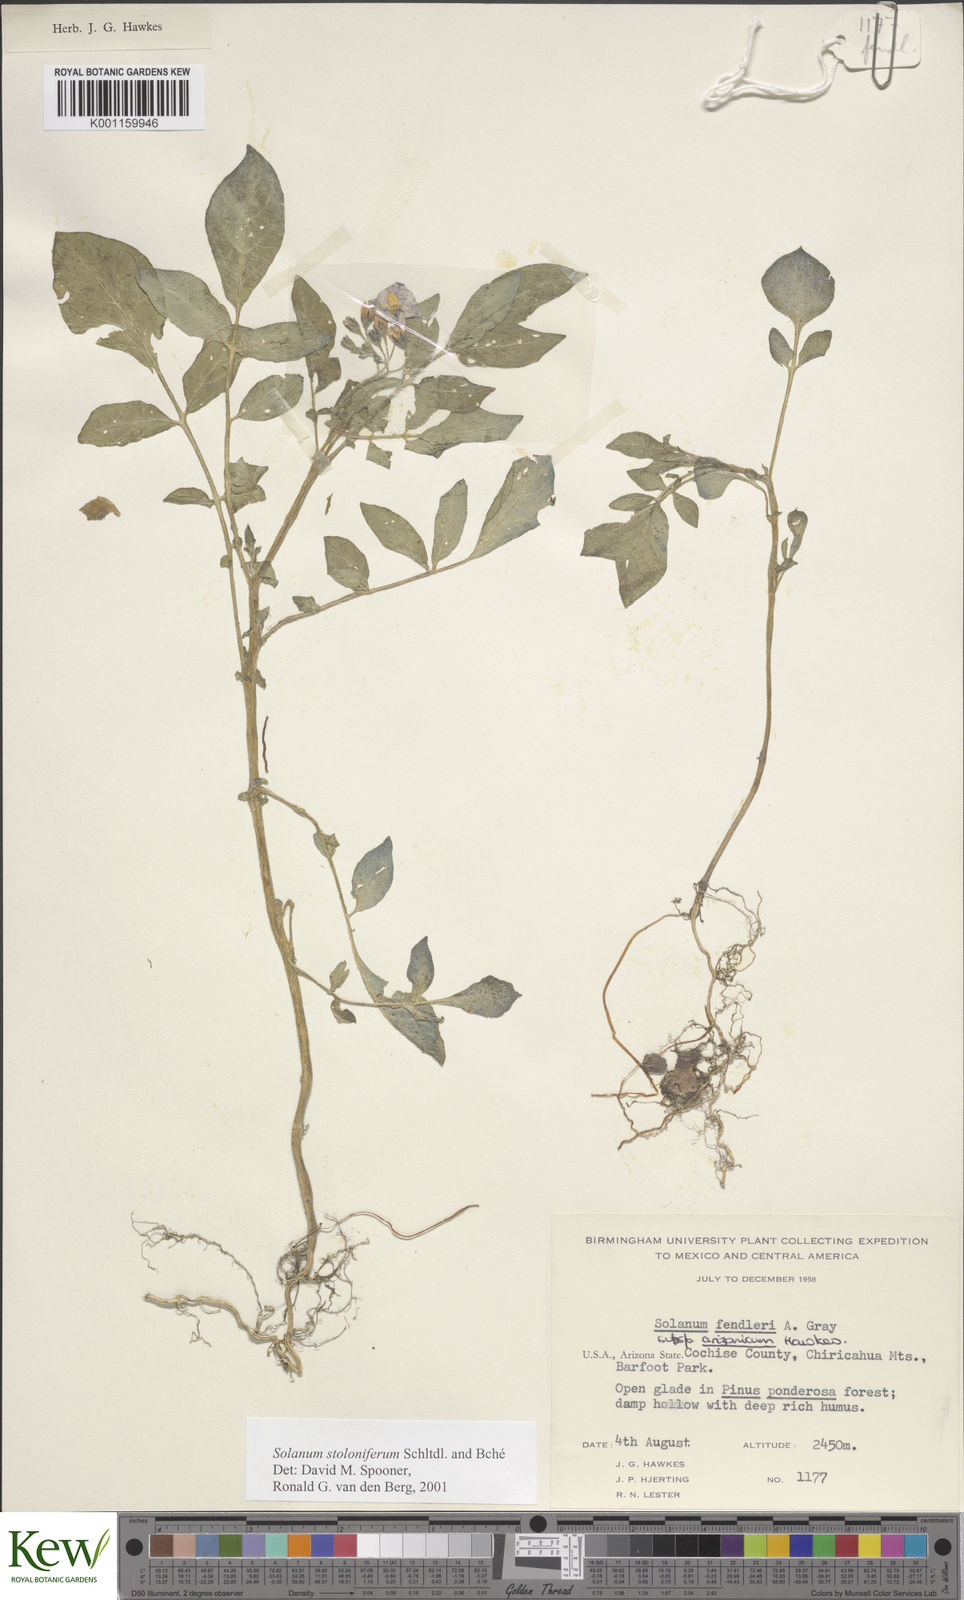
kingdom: Plantae
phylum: Tracheophyta
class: Magnoliopsida
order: Solanales
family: Solanaceae
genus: Solanum
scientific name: Solanum stoloniferum
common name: Fendler's nighshade
